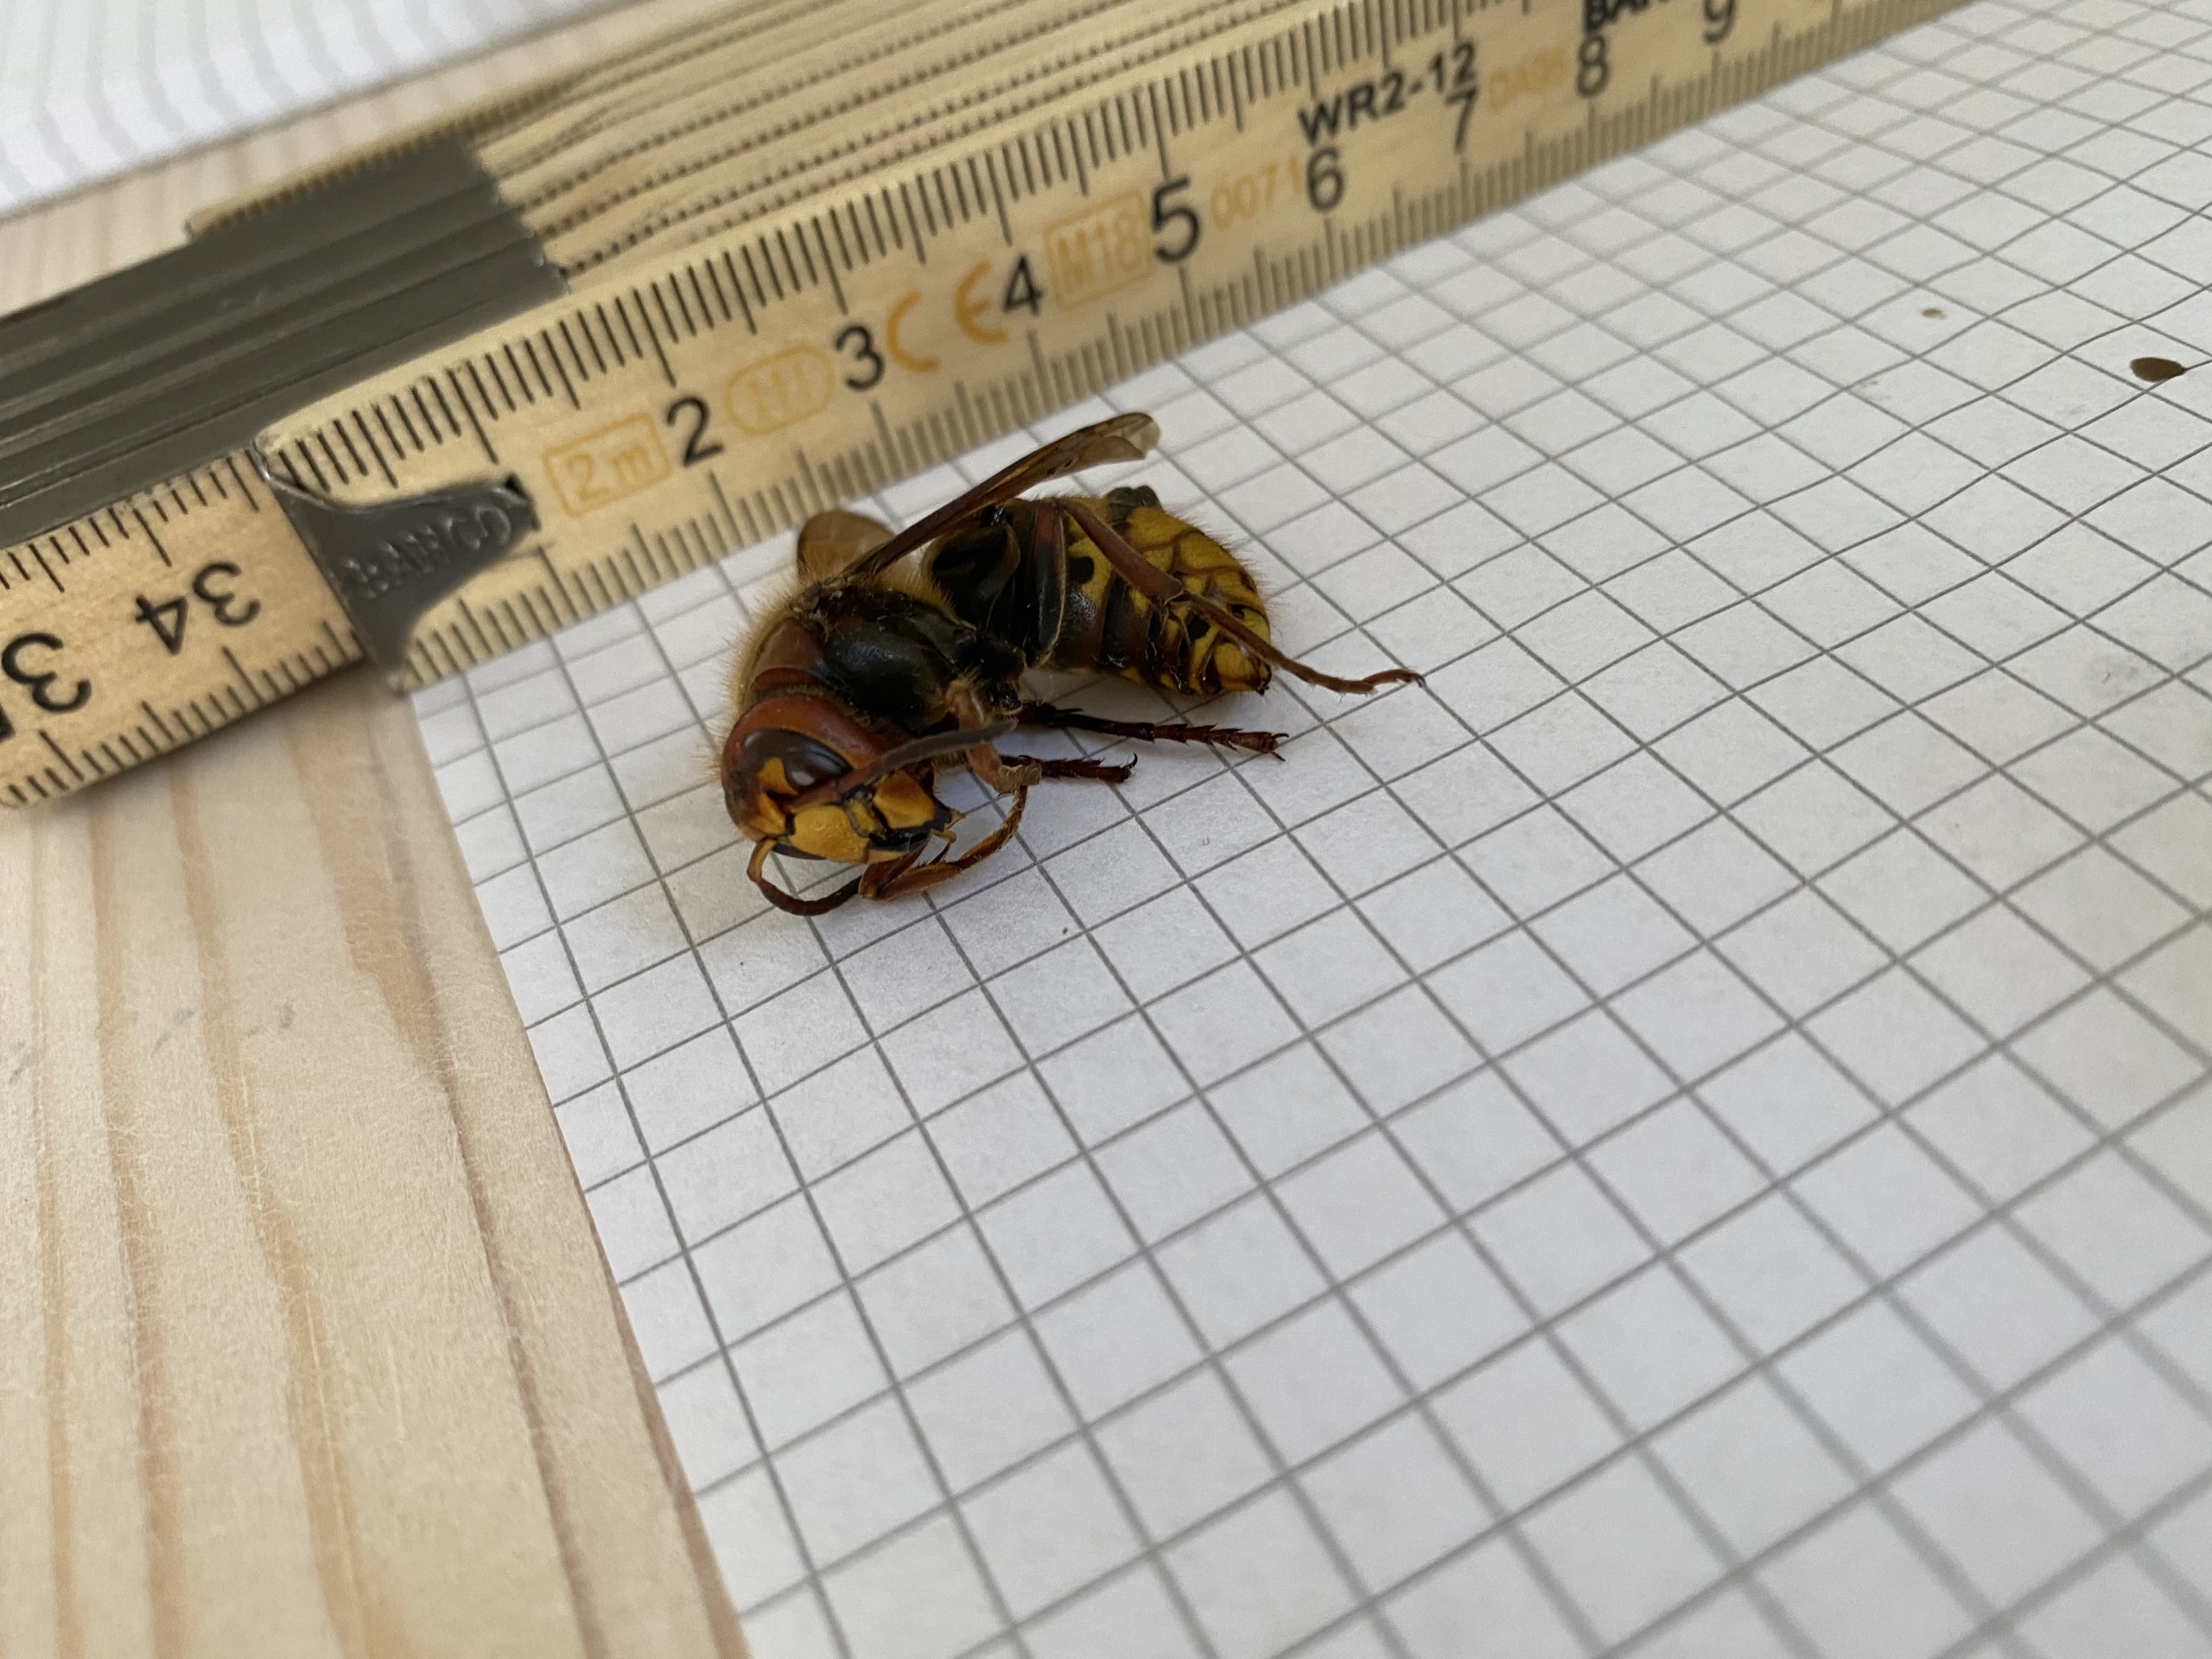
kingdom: Animalia
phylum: Arthropoda
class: Insecta
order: Hymenoptera
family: Vespidae
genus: Vespa
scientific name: Vespa crabro
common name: Stor gedehams
